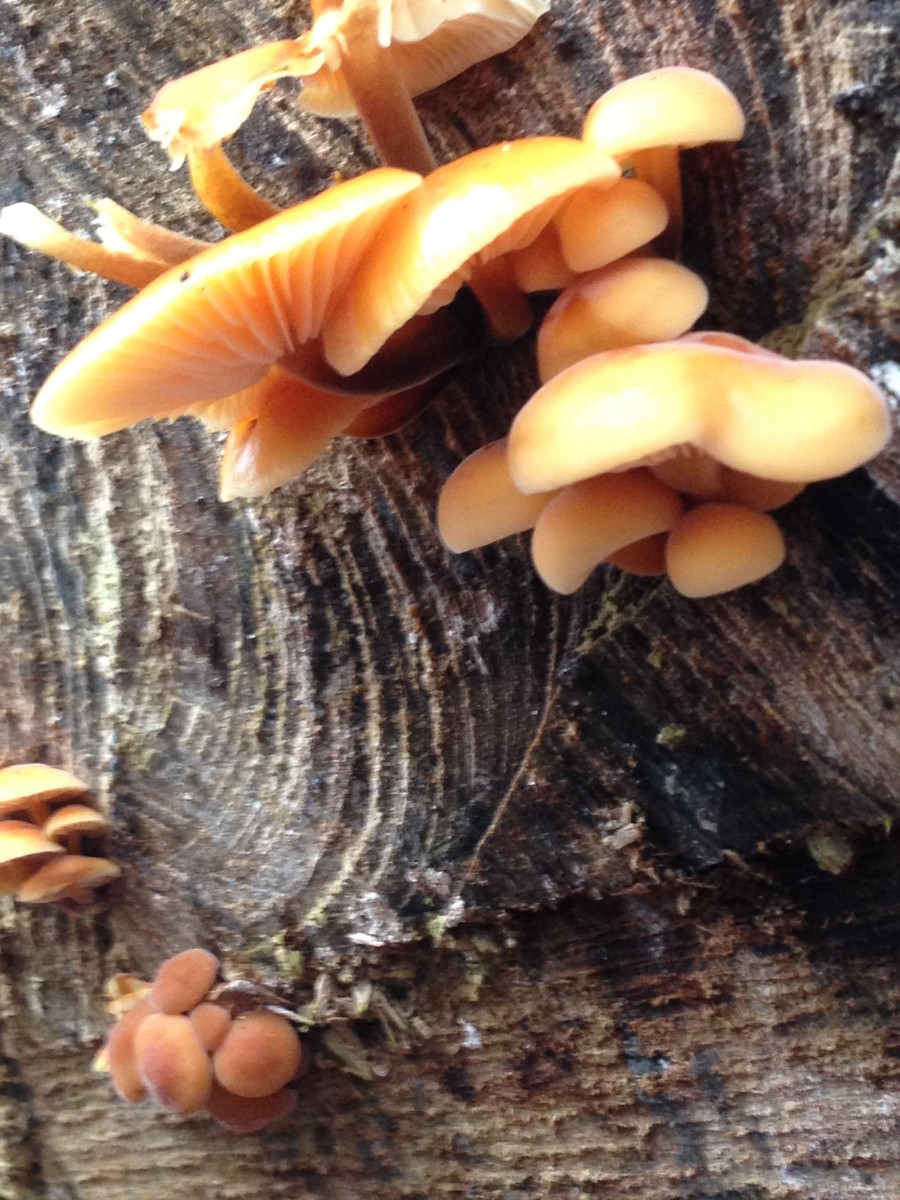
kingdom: Fungi
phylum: Basidiomycota
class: Agaricomycetes
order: Agaricales
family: Physalacriaceae
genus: Flammulina
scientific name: Flammulina velutipes
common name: gul fløjlsfod
